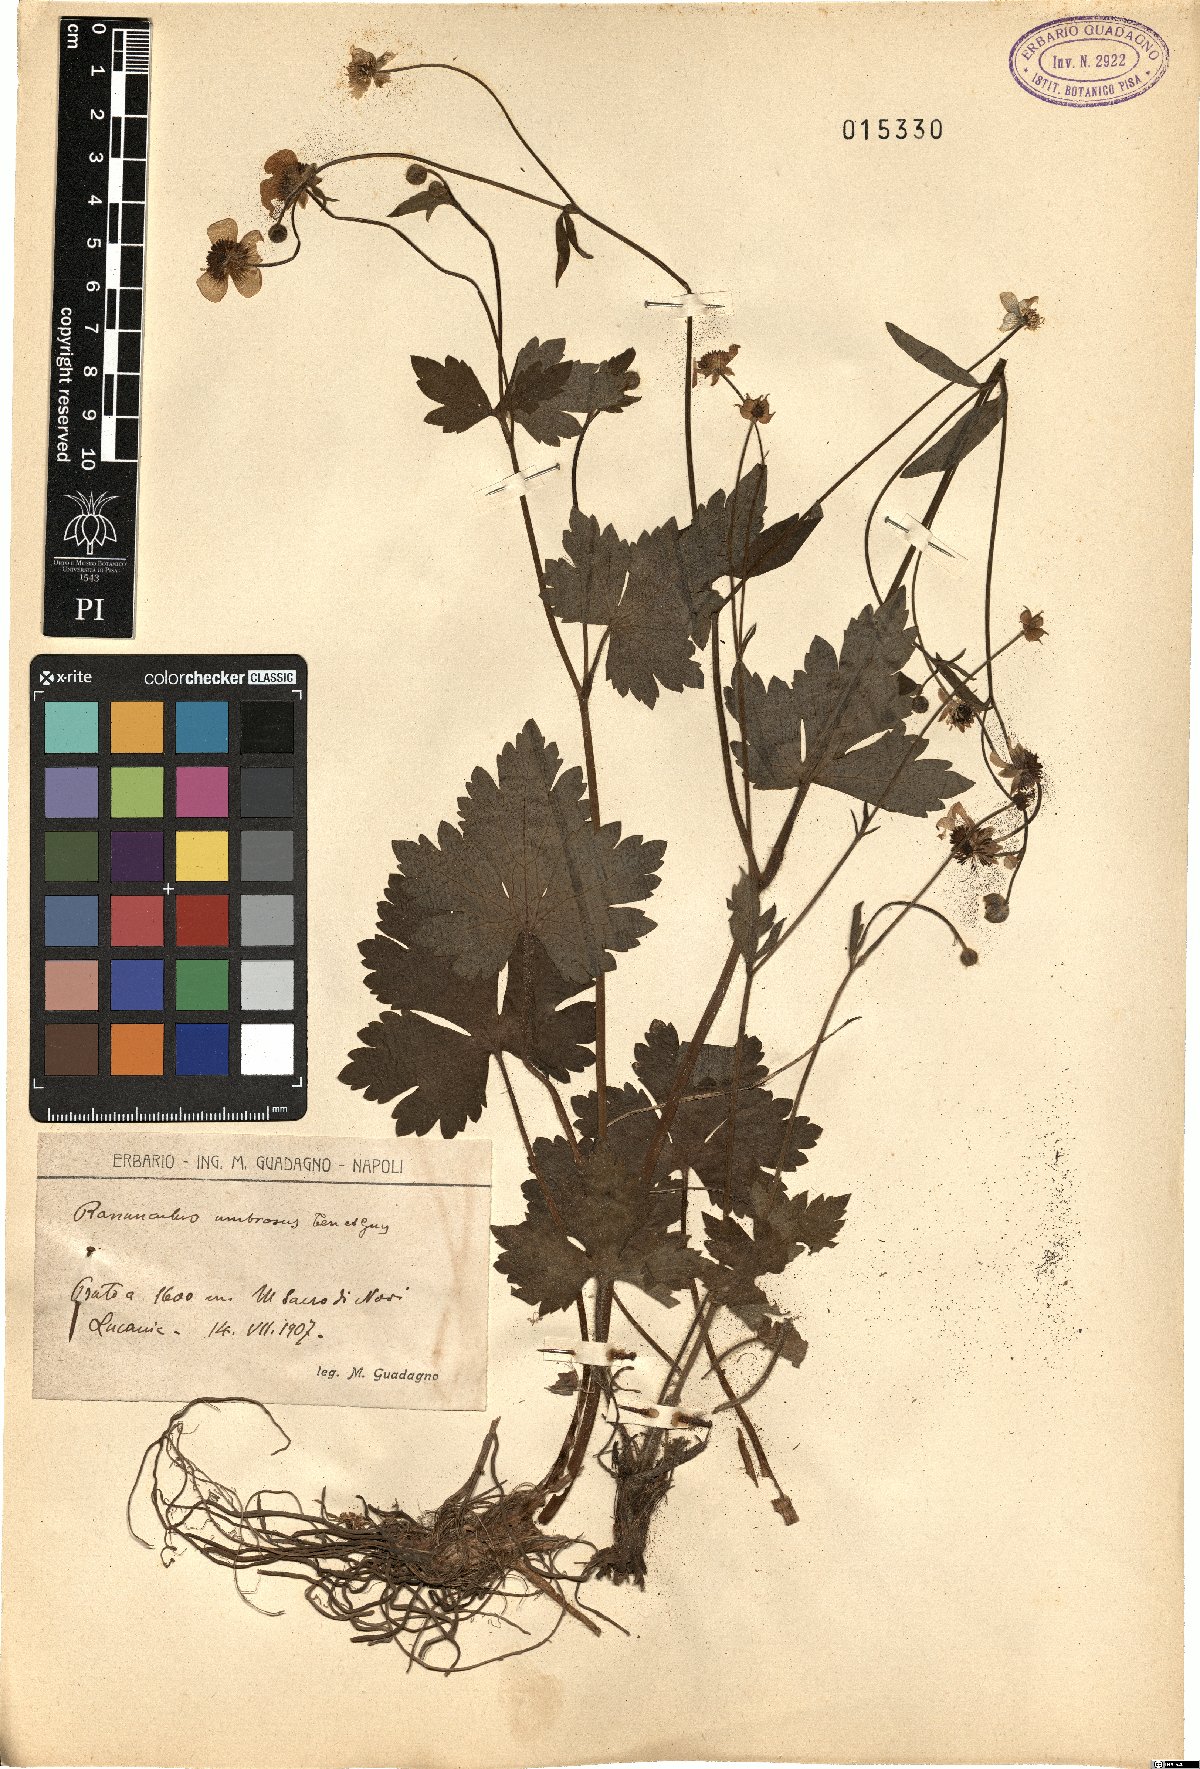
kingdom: Plantae
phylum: Tracheophyta
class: Magnoliopsida
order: Ranunculales
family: Ranunculaceae
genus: Ranunculus
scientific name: Ranunculus lanuginosus
